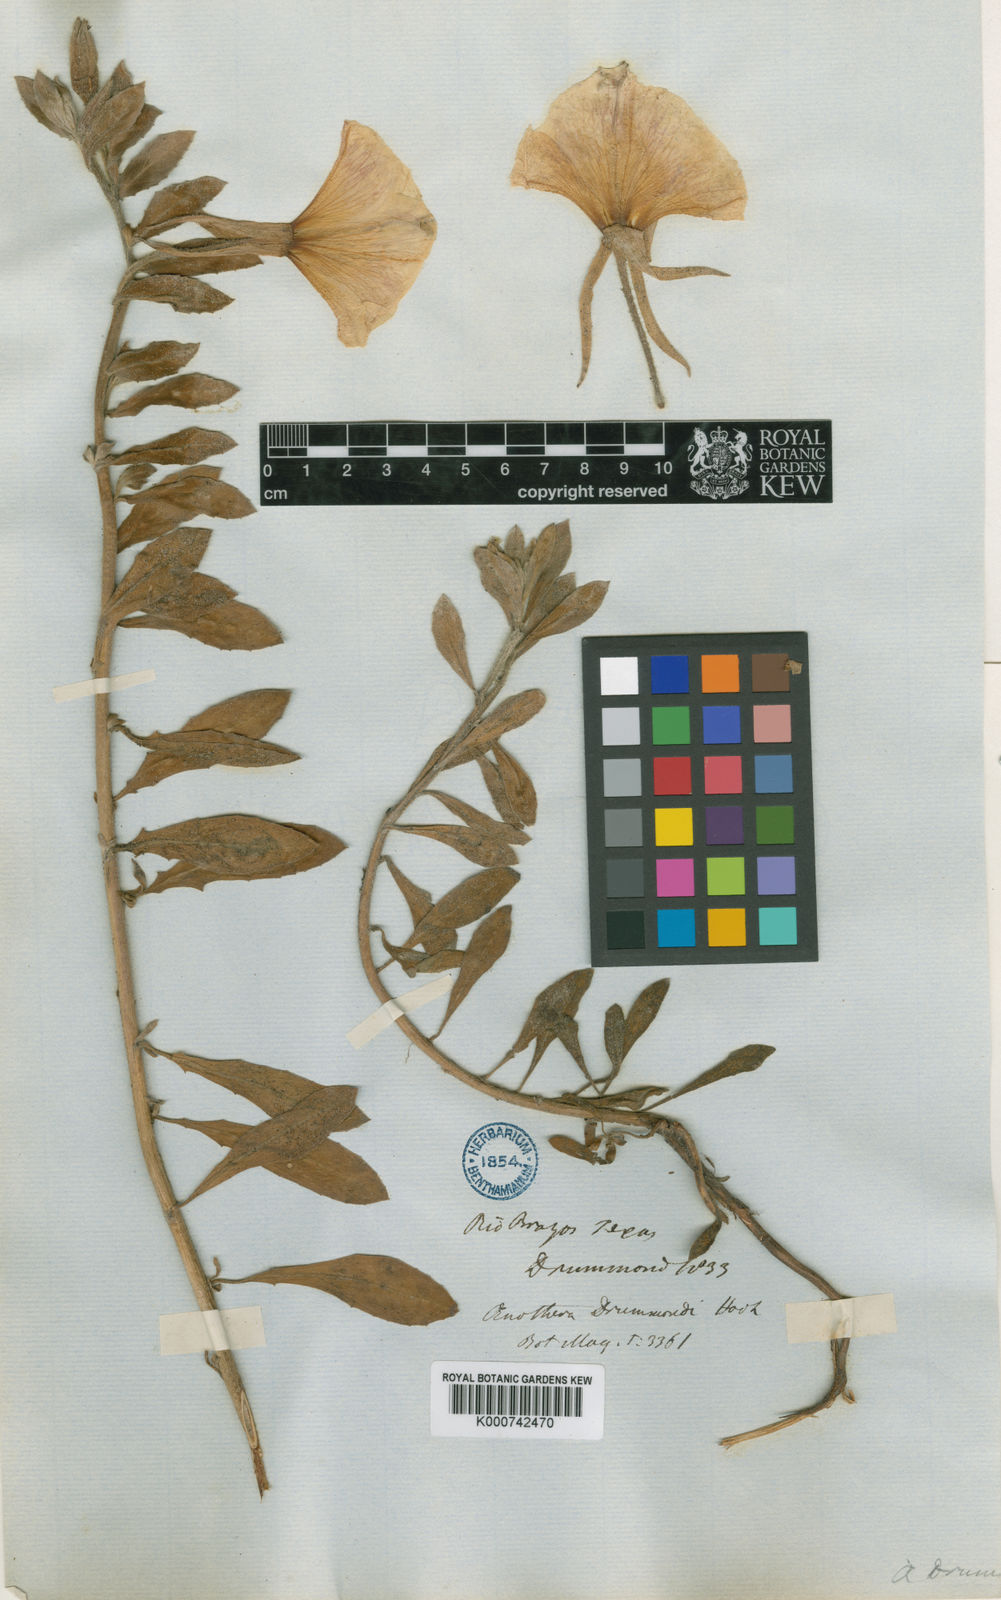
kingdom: Plantae
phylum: Tracheophyta
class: Magnoliopsida
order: Myrtales
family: Onagraceae
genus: Oenothera
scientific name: Oenothera drummondii
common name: Beach evening-primrose
